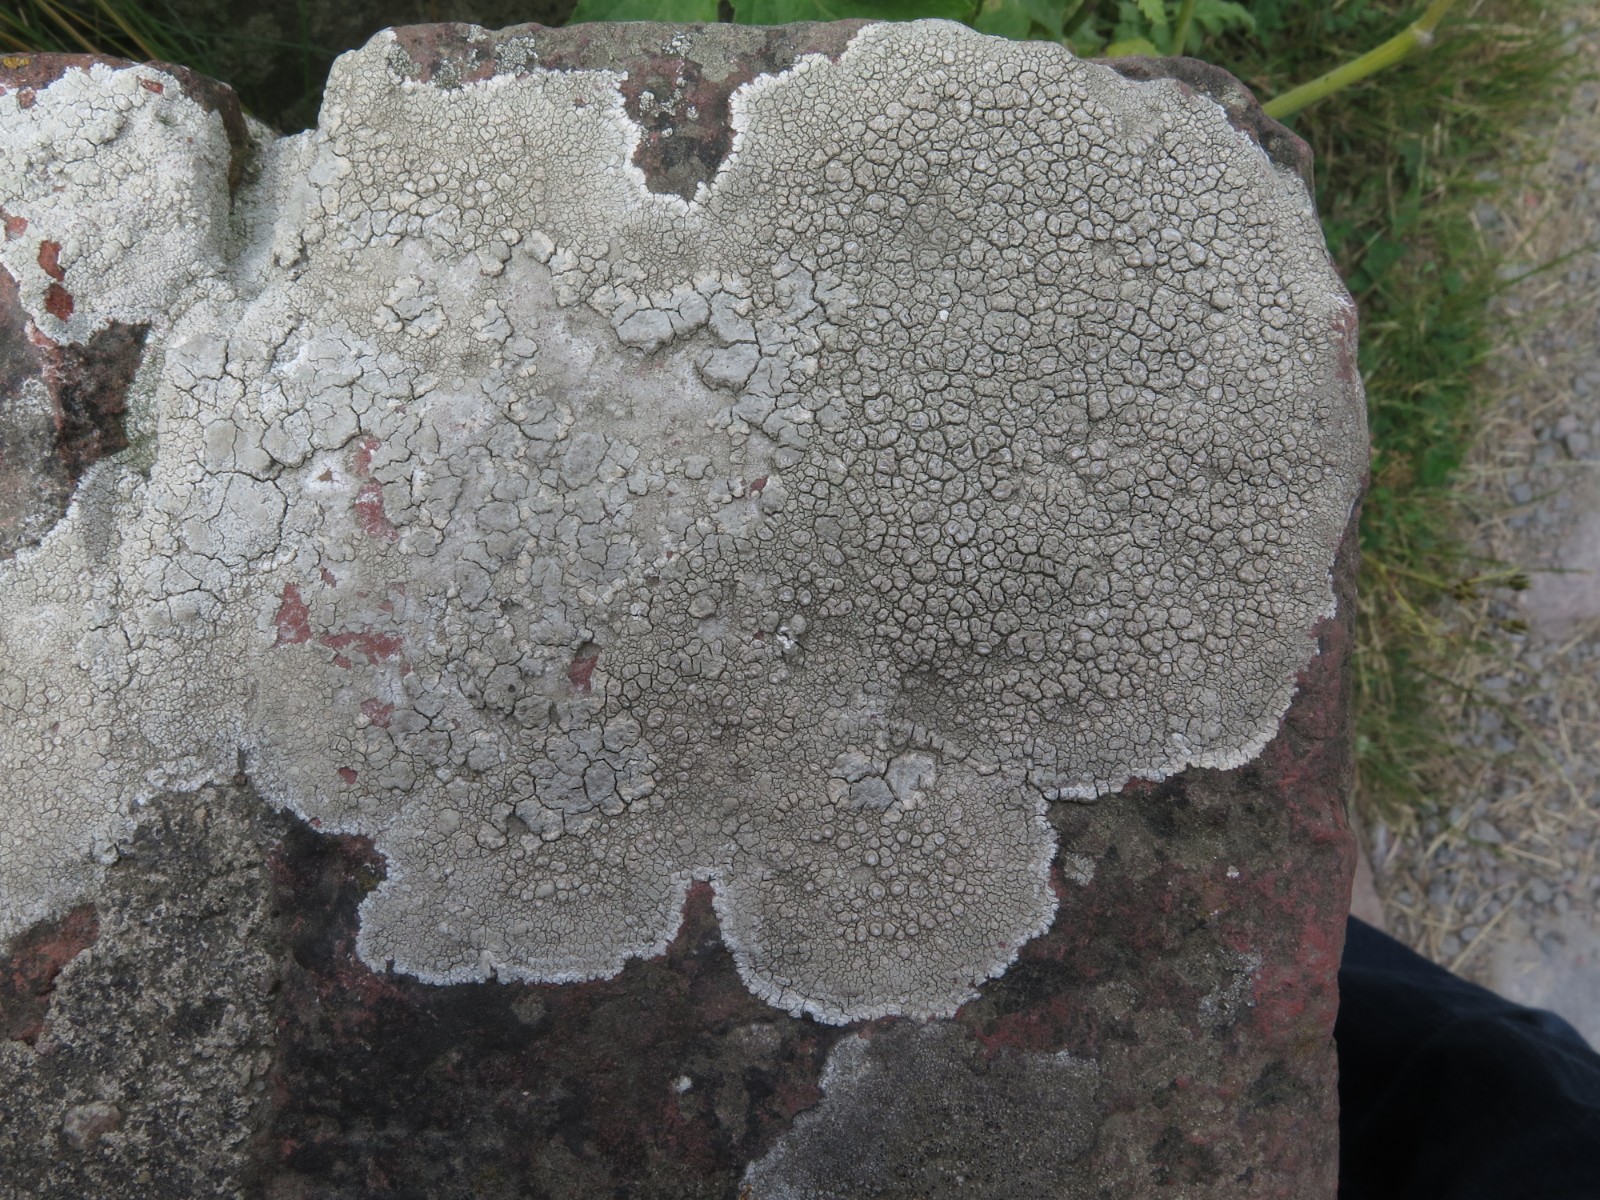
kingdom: Fungi
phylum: Ascomycota
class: Lecanoromycetes
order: Pertusariales
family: Ochrolechiaceae
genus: Ochrolechia
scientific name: Ochrolechia parella
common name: almindelig blegskivelav
